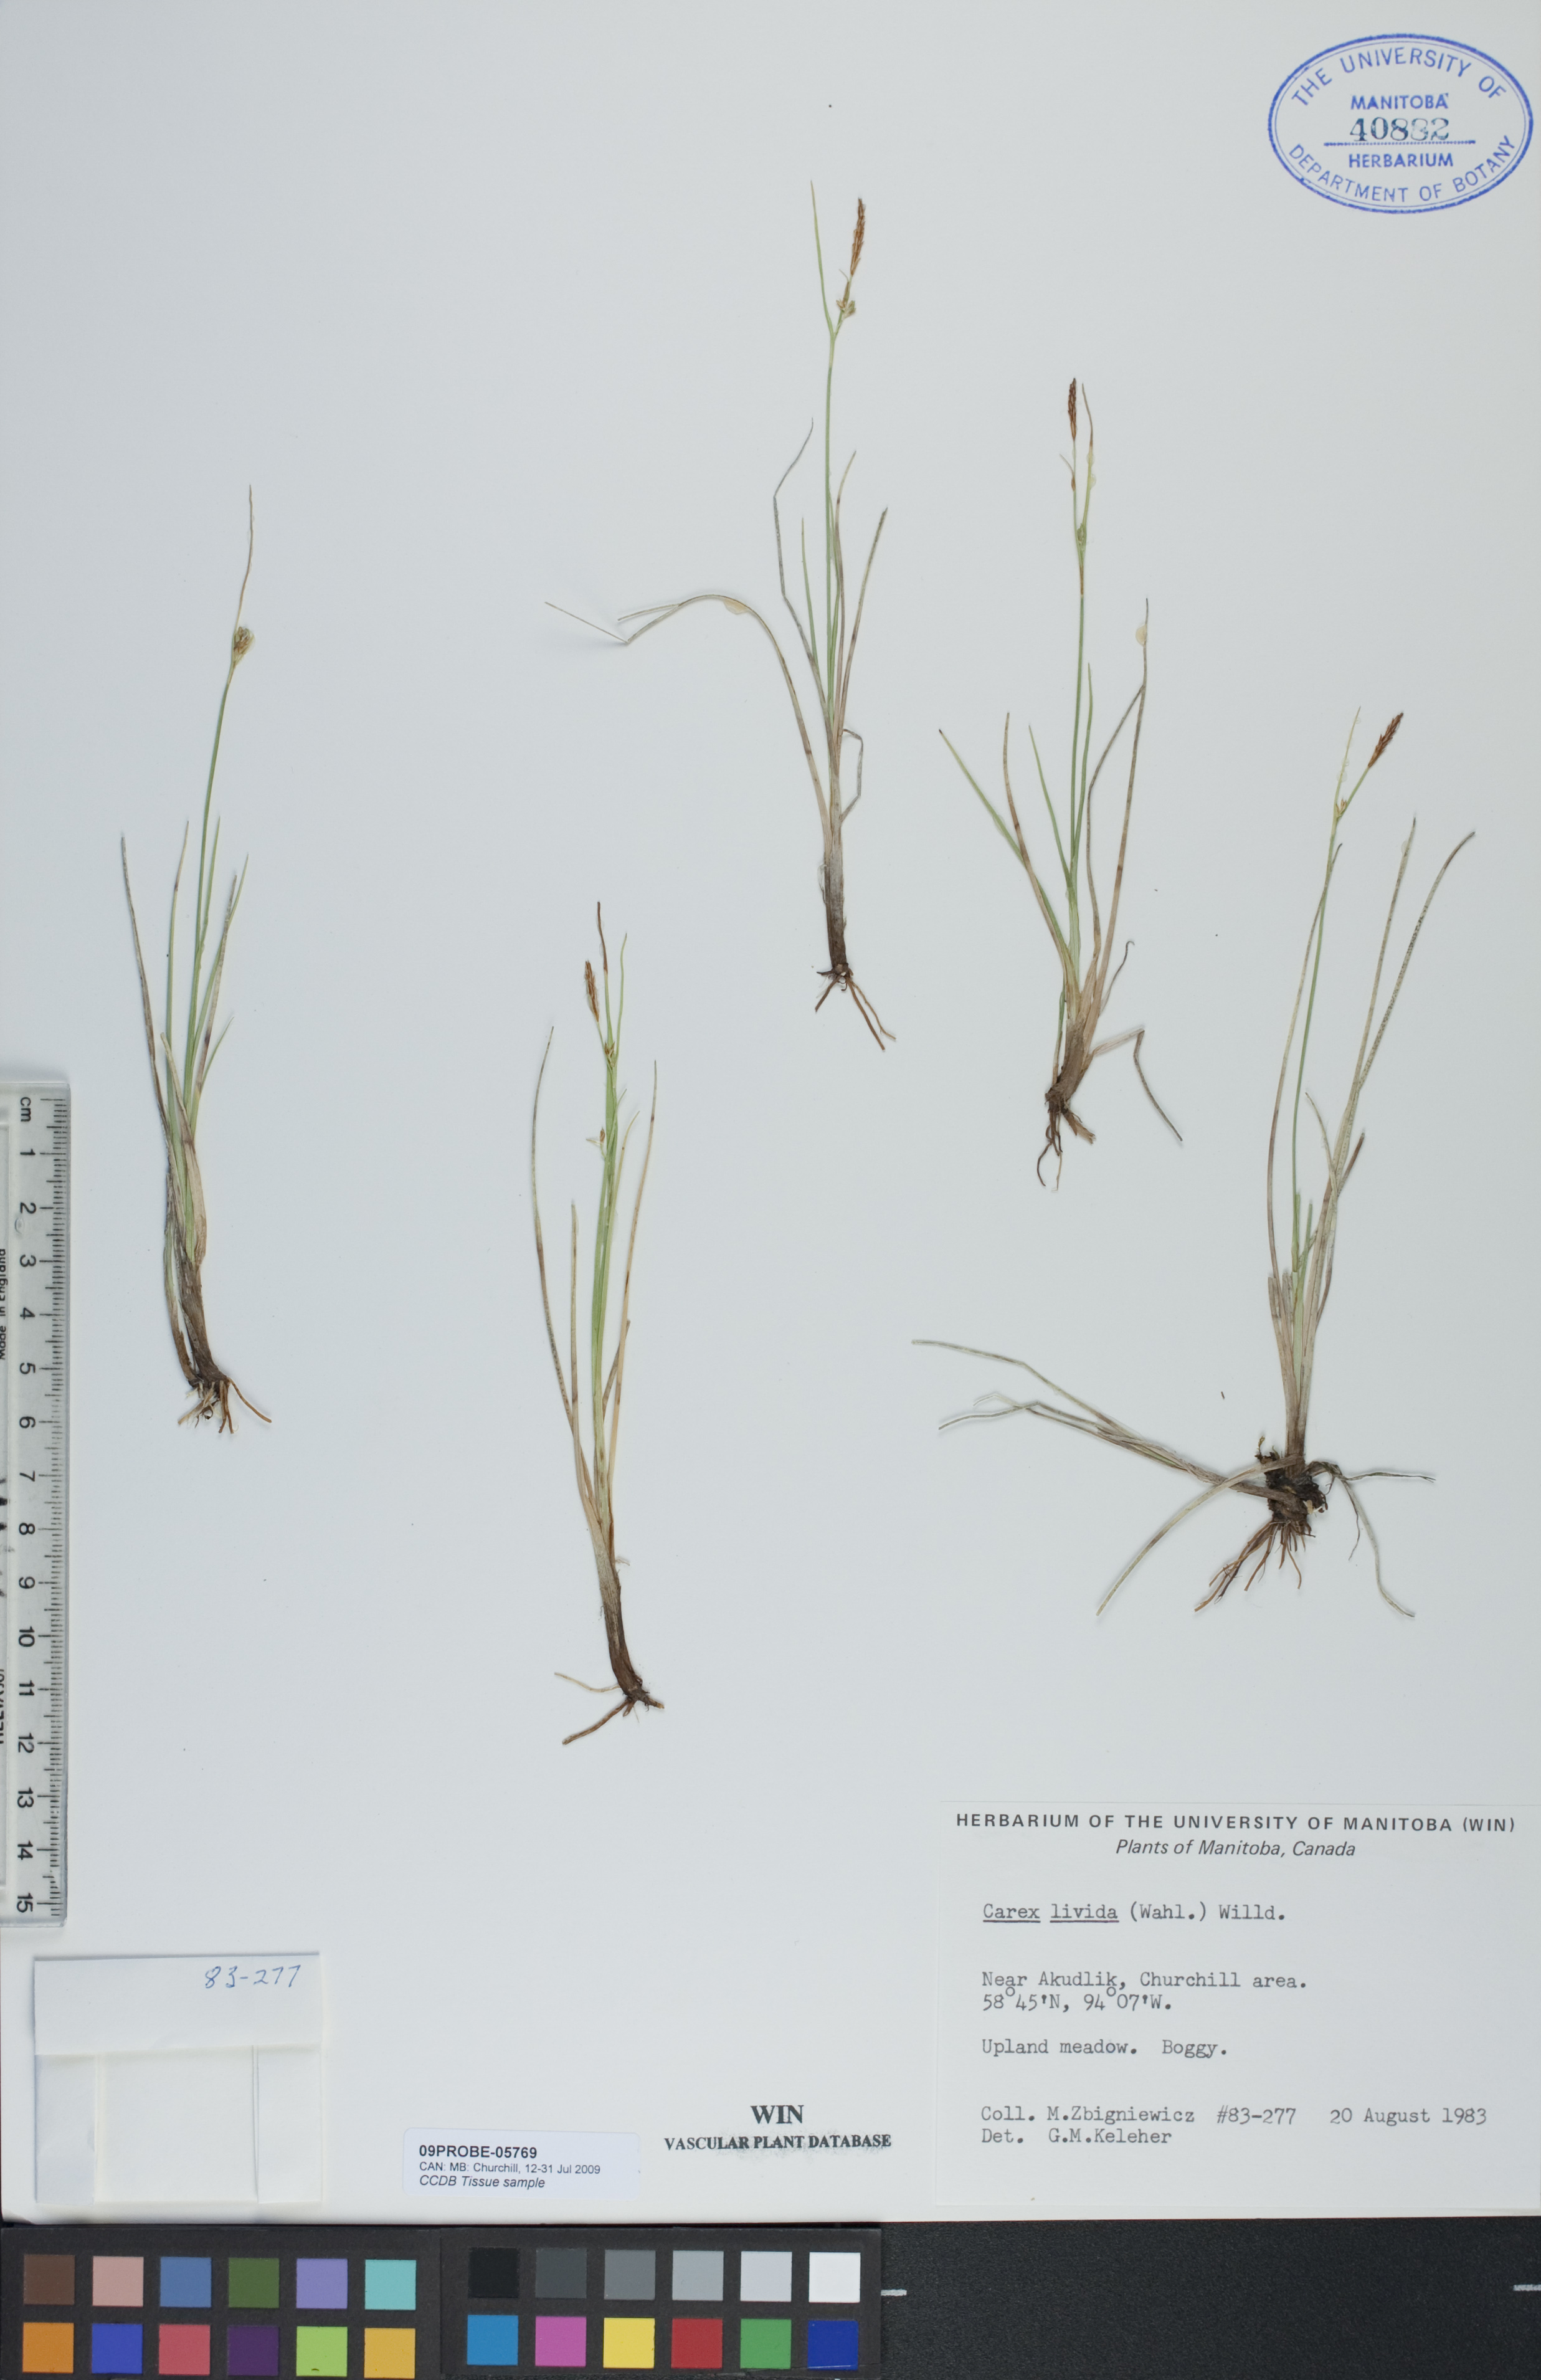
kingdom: Plantae
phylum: Tracheophyta
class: Liliopsida
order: Poales
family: Cyperaceae
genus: Carex
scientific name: Carex livida
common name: Livid sedge
